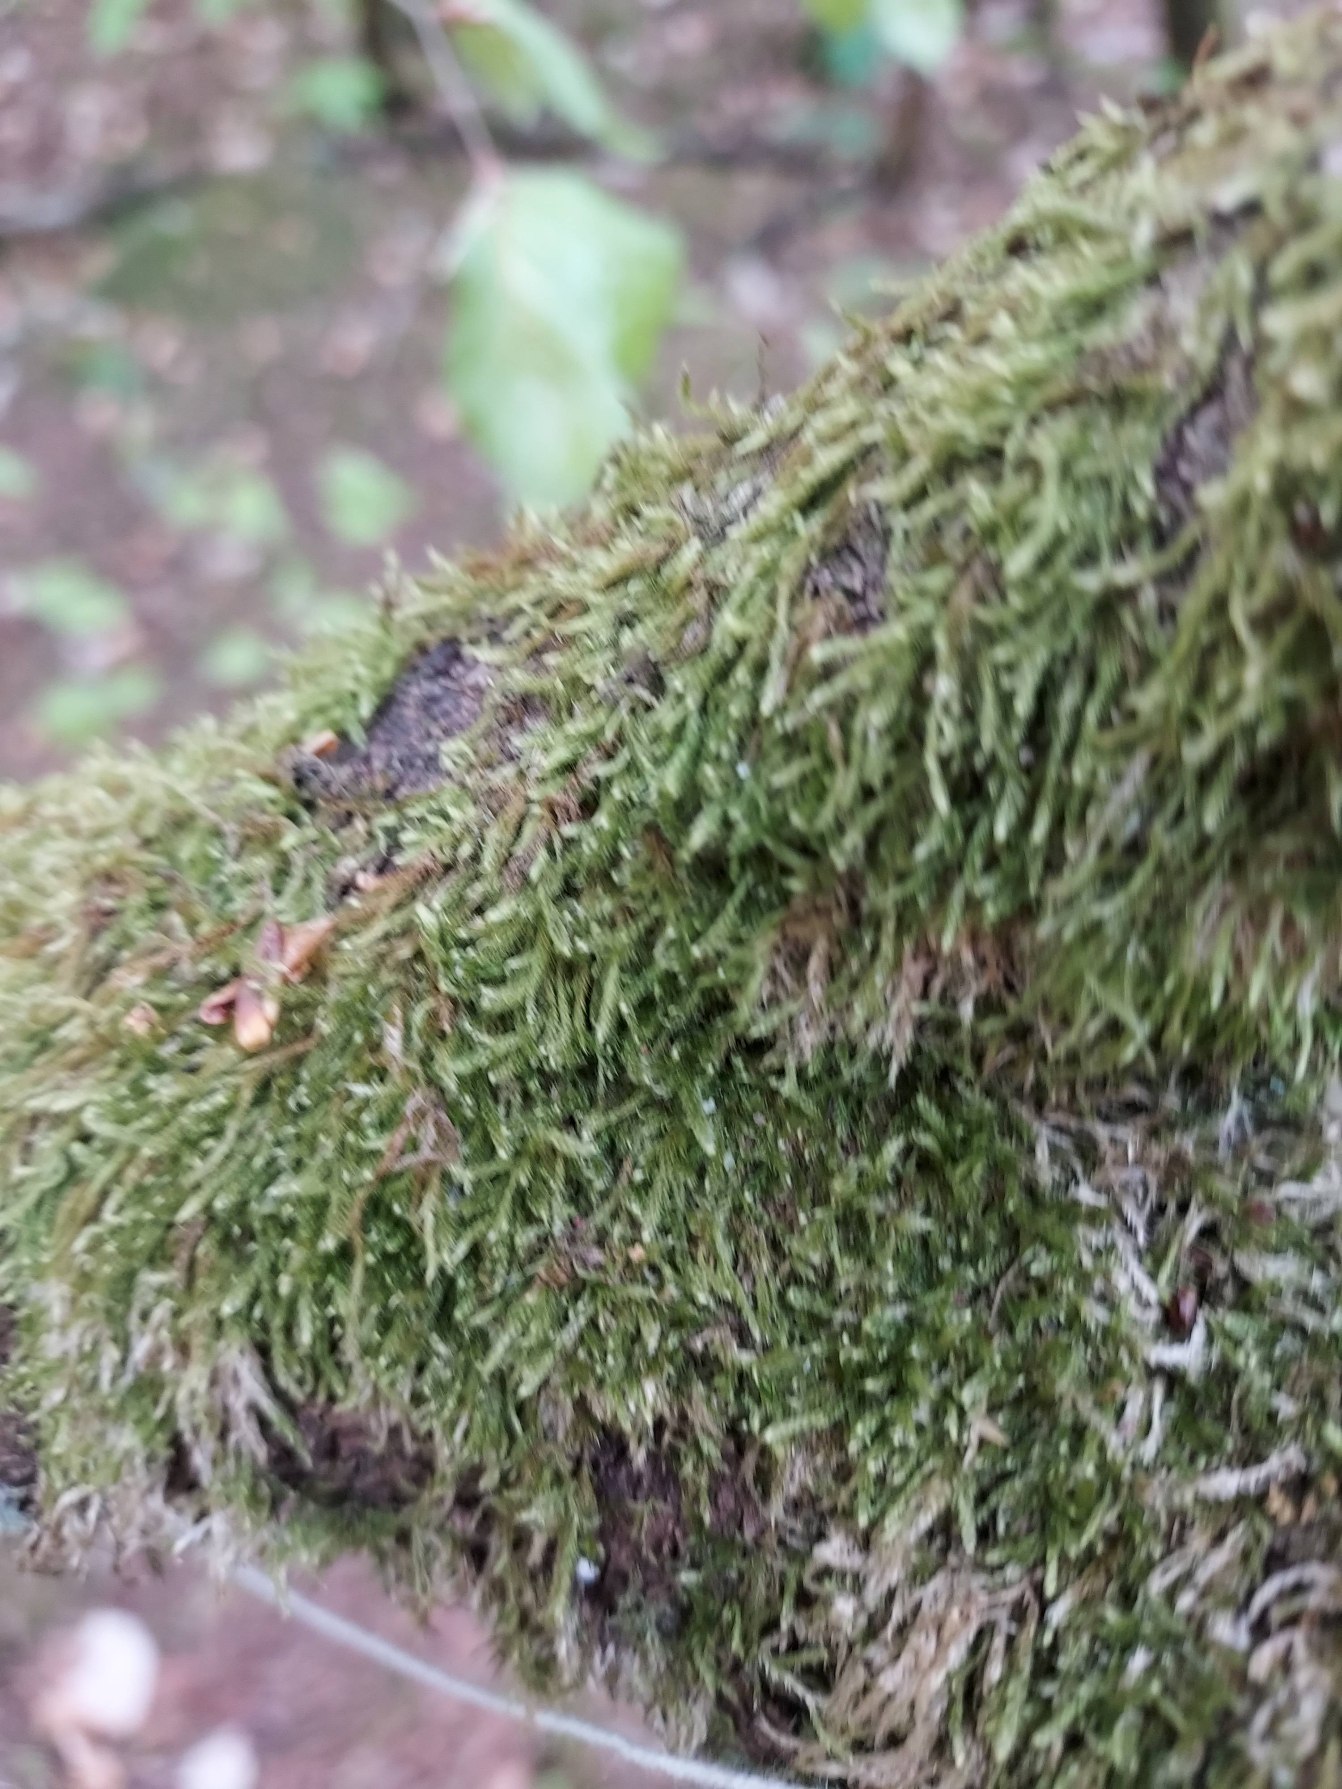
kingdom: Plantae
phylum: Bryophyta
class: Bryopsida
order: Hypnales
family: Hypnaceae
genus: Hypnum
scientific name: Hypnum
